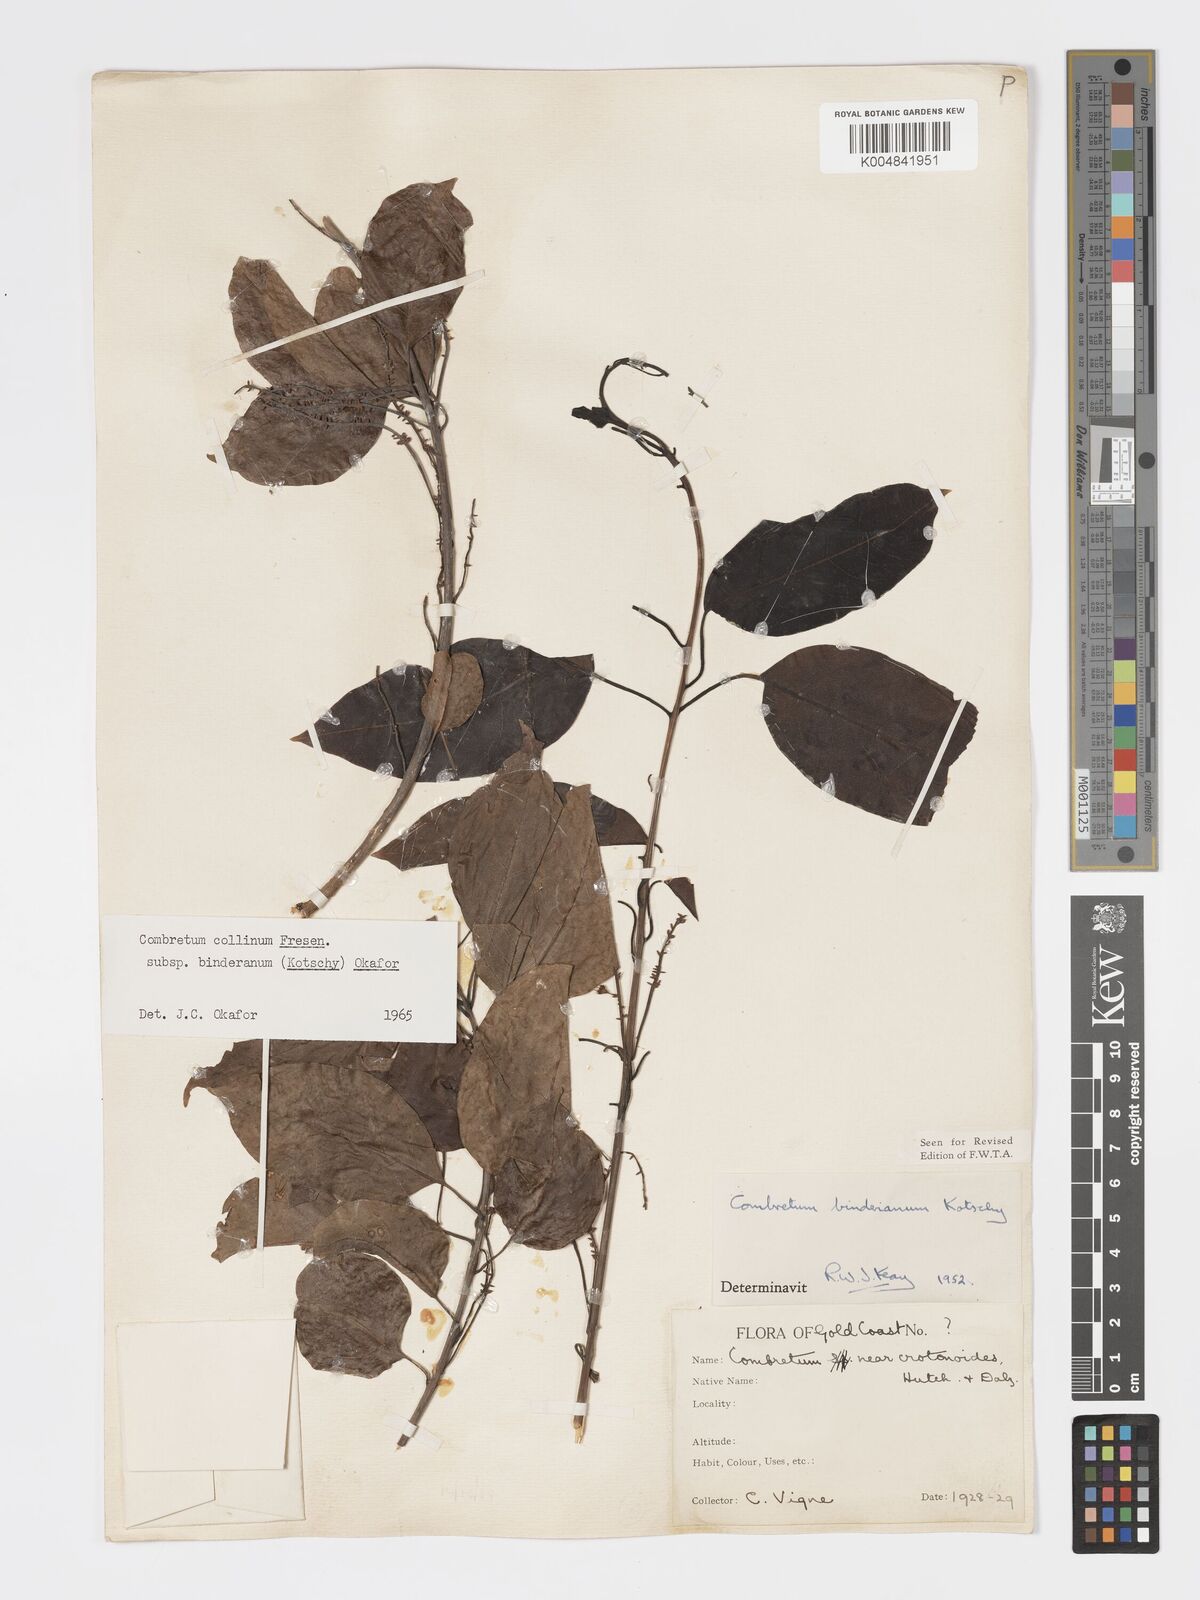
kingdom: Plantae
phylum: Tracheophyta
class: Magnoliopsida
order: Myrtales
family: Combretaceae
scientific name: Combretaceae
